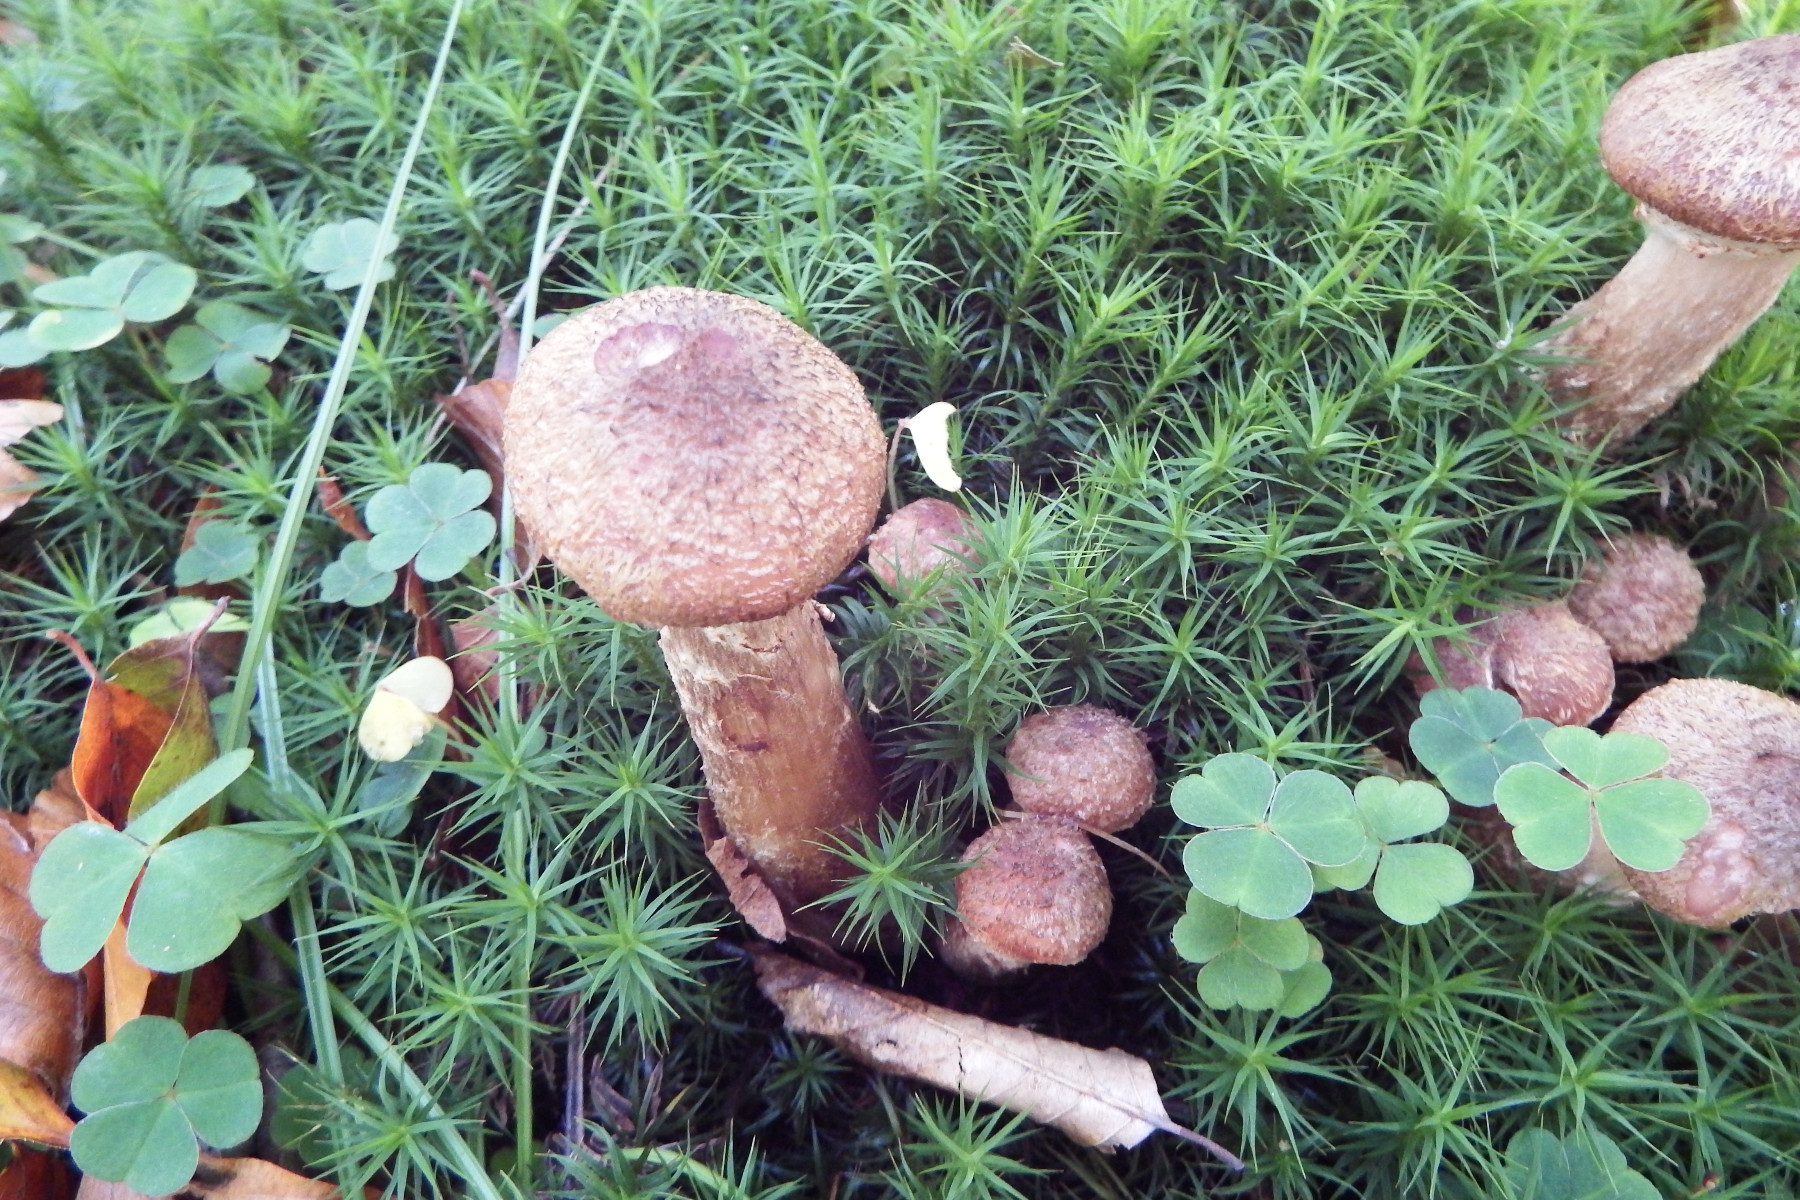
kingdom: Fungi
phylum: Basidiomycota
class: Agaricomycetes
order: Agaricales
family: Physalacriaceae
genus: Armillaria
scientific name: Armillaria
